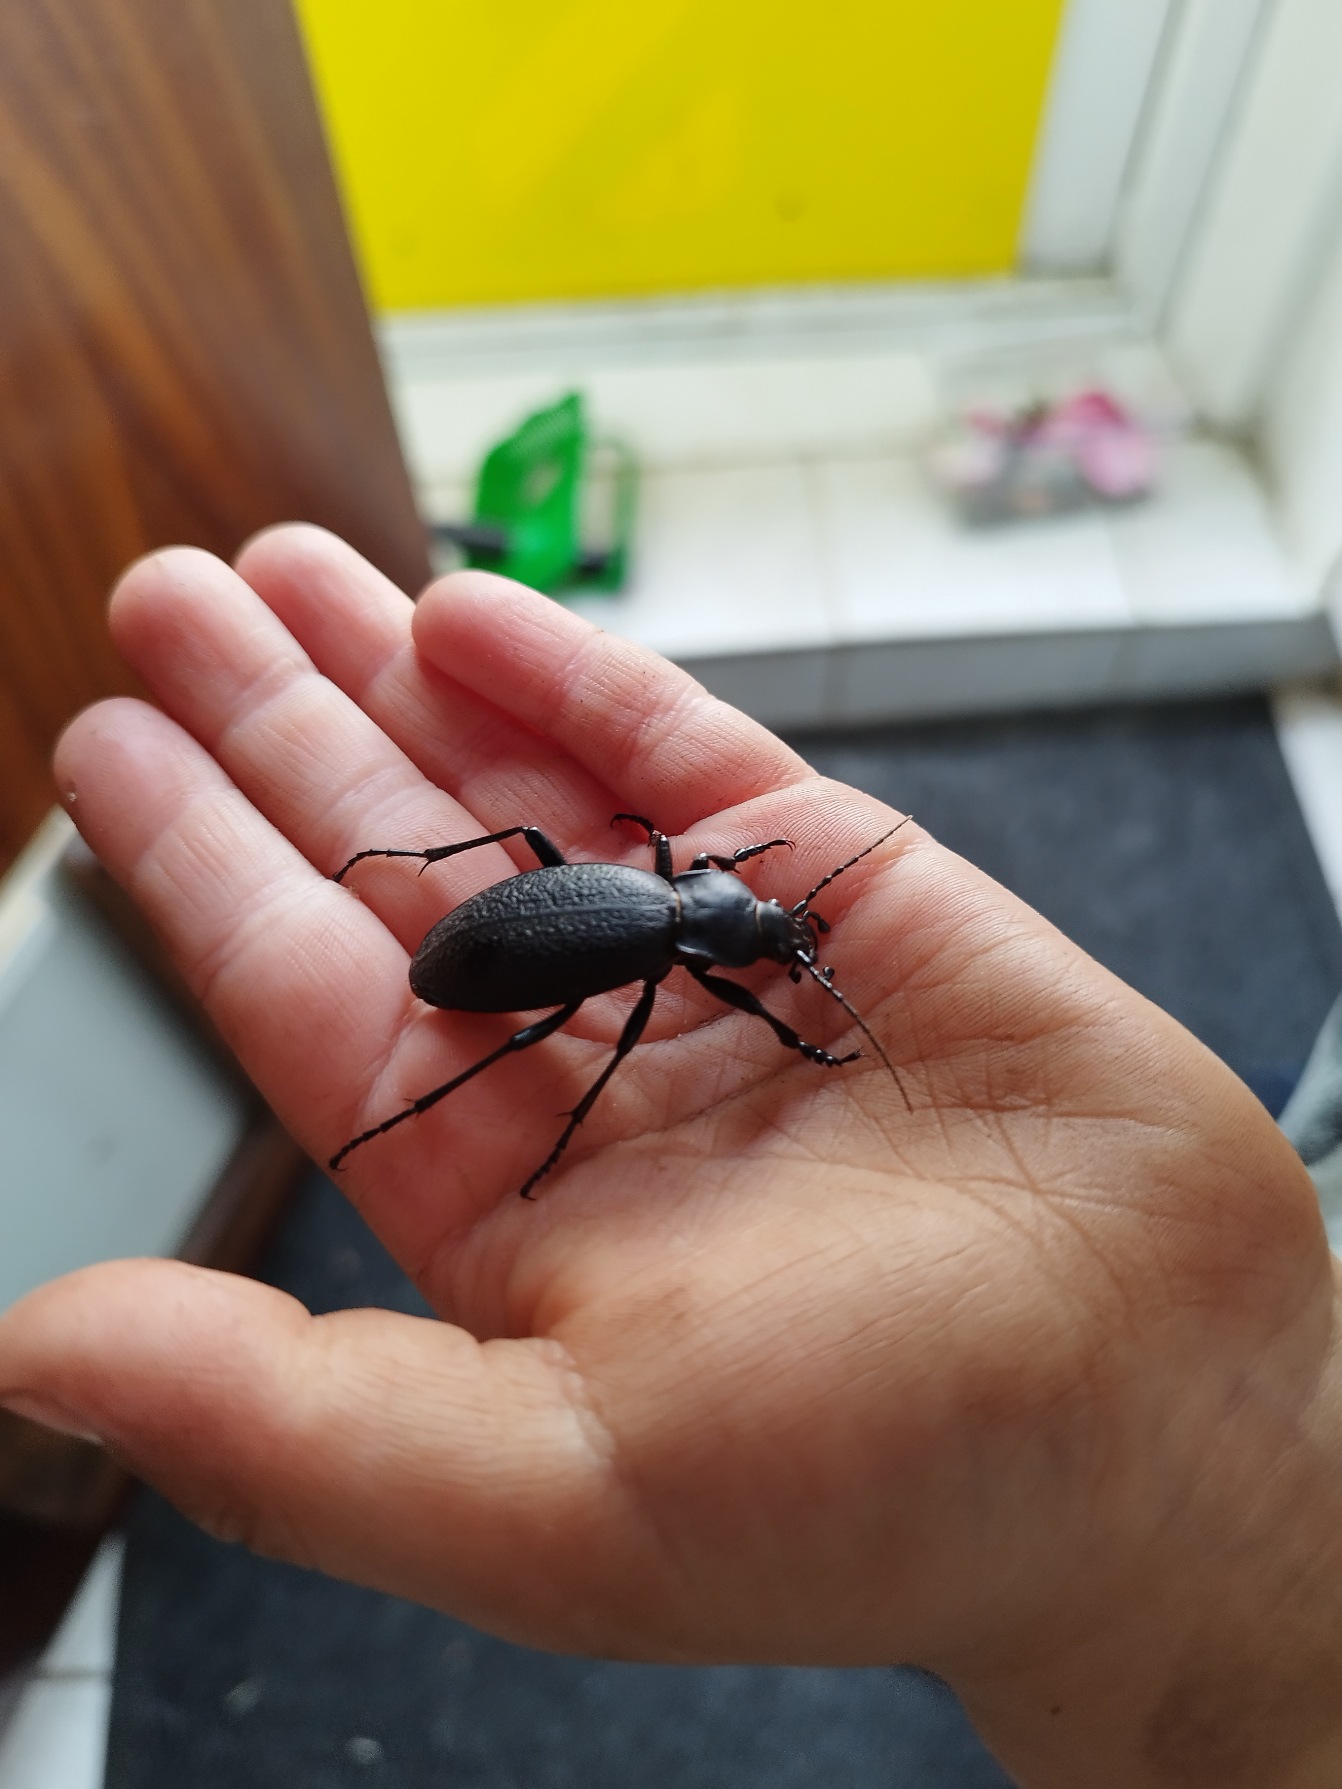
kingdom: Animalia
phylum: Arthropoda
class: Insecta
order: Coleoptera
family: Carabidae
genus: Carabus
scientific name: Carabus coriaceus
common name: Læderløber
